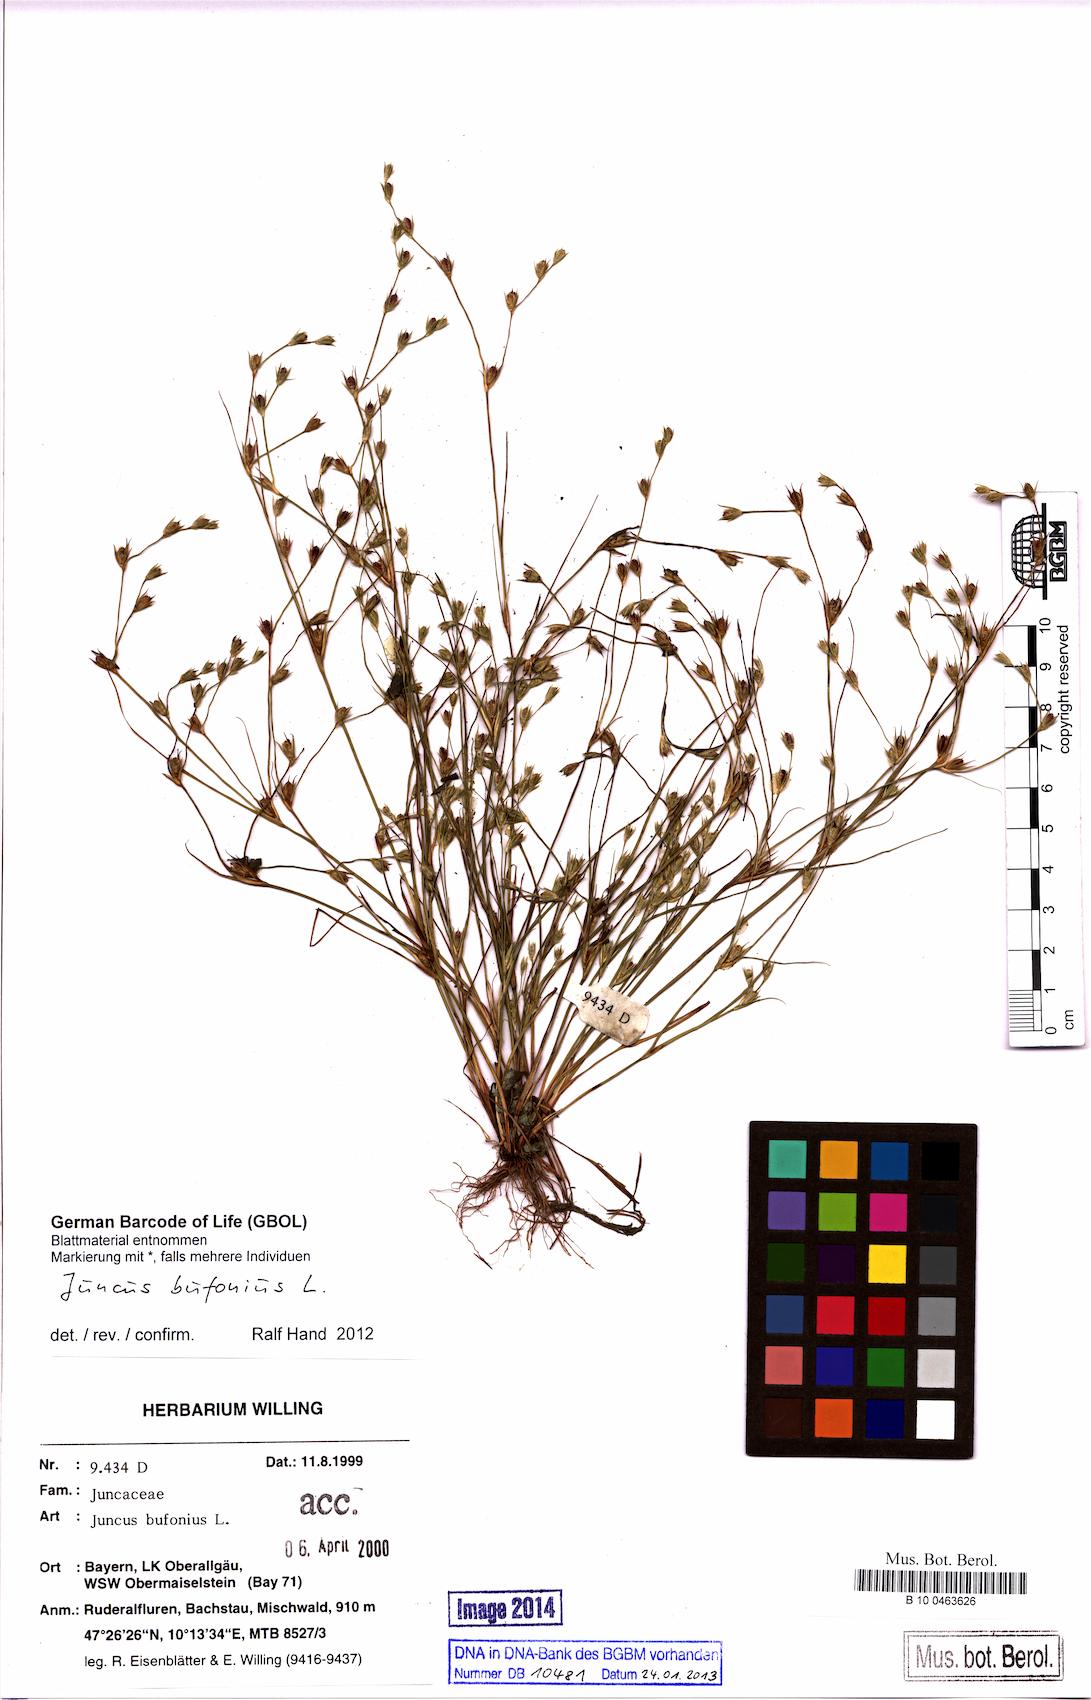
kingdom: Plantae
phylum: Tracheophyta
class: Liliopsida
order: Poales
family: Juncaceae
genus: Juncus
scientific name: Juncus bufonius
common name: Toad rush
